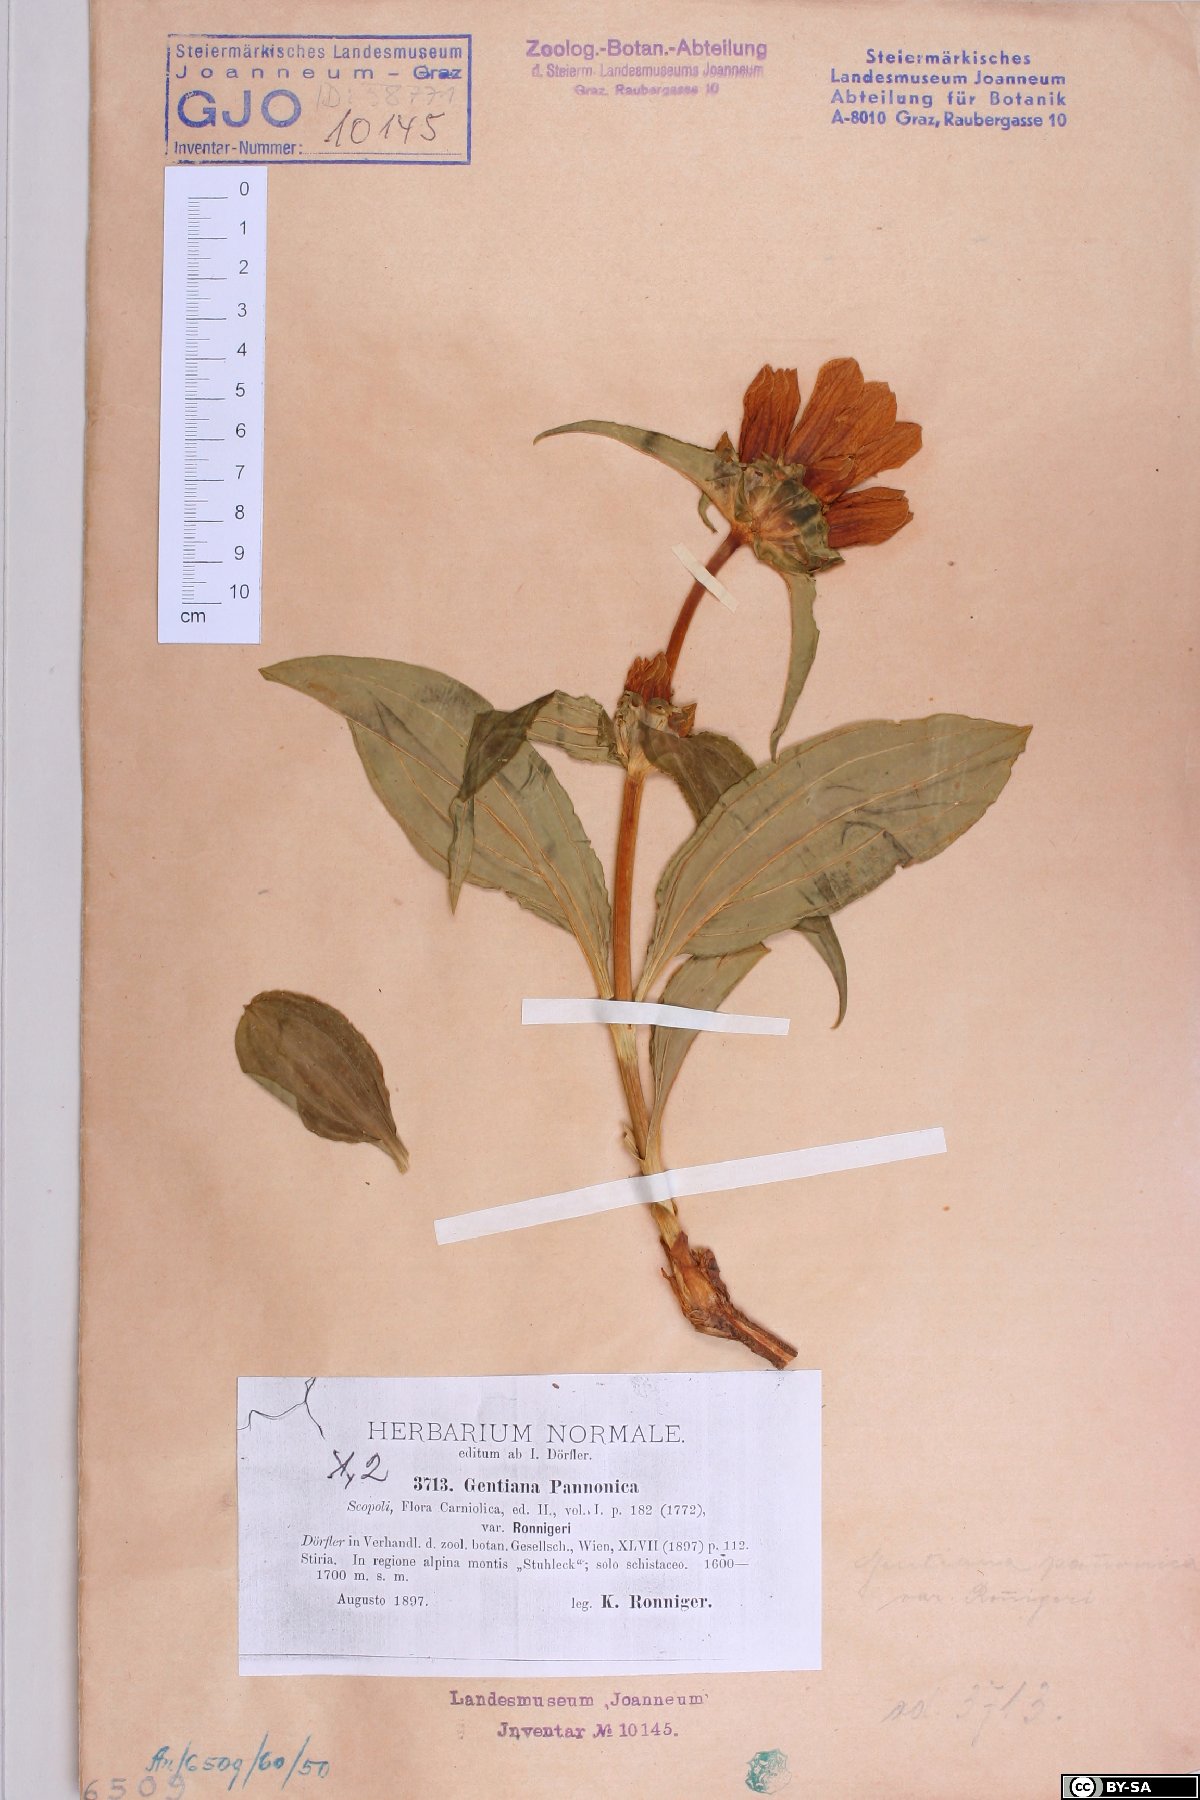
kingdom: Plantae
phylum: Tracheophyta
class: Magnoliopsida
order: Gentianales
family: Gentianaceae
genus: Gentiana
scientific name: Gentiana pannonica
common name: Hungarian gentian
